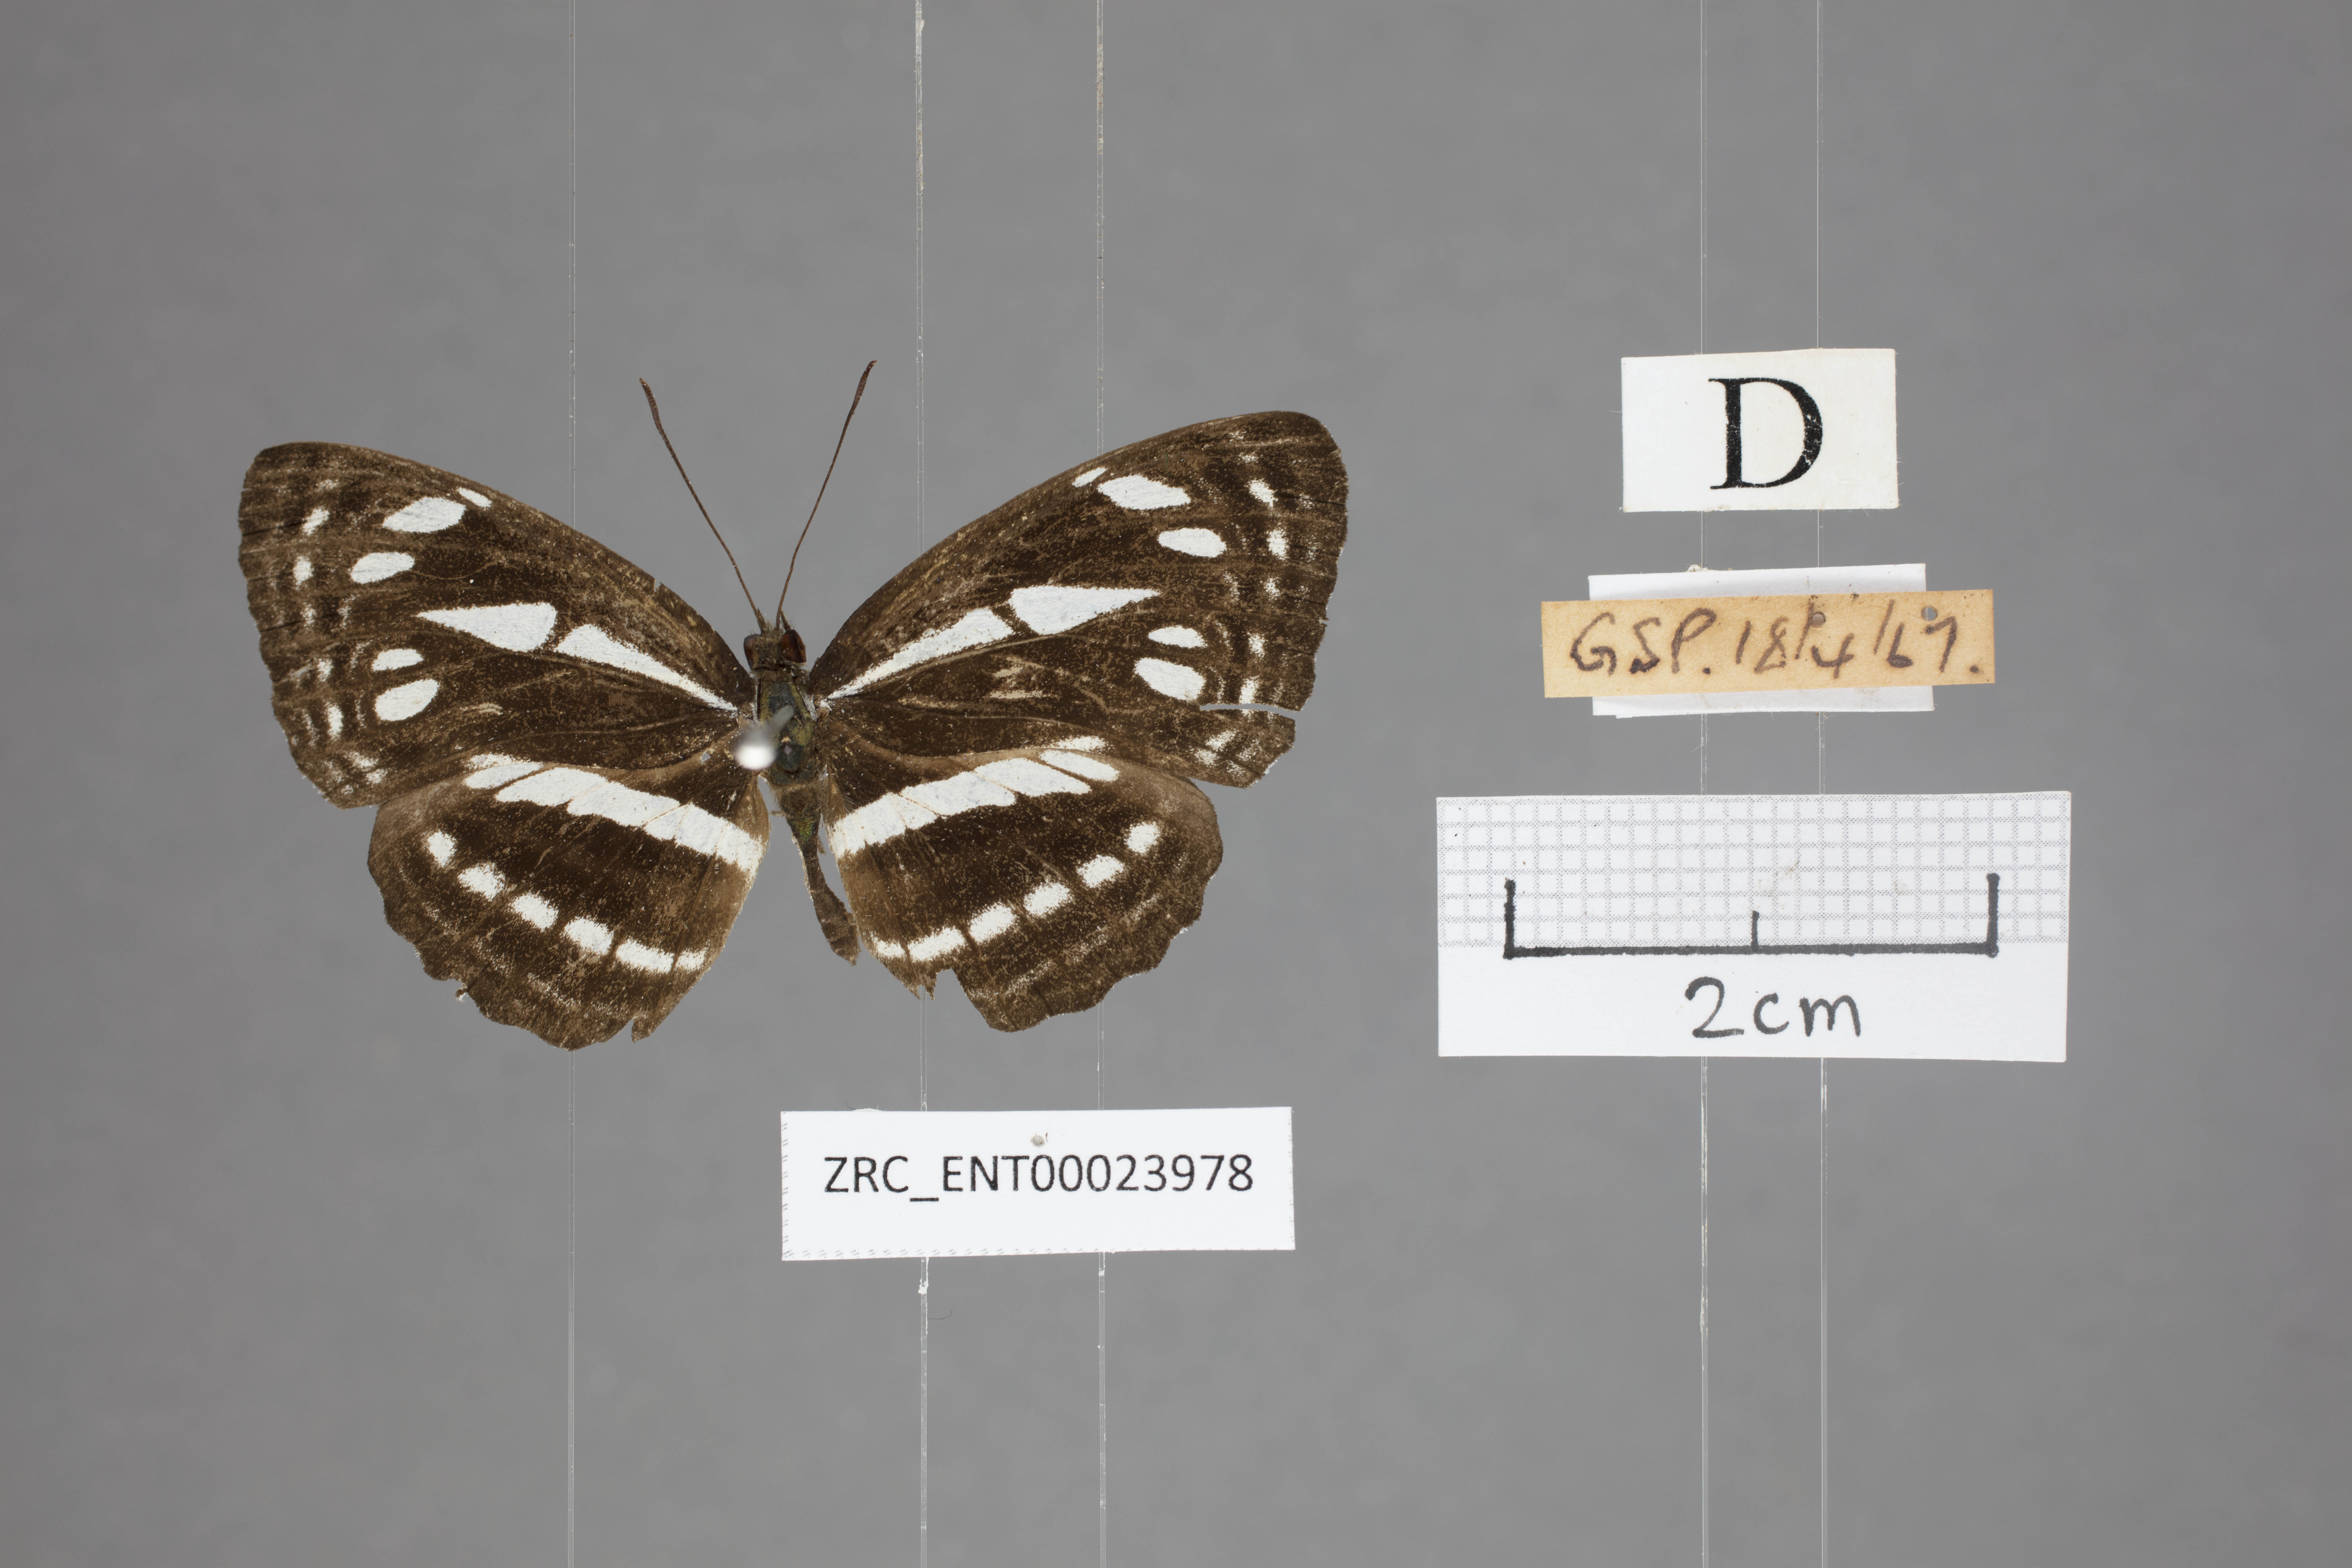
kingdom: Animalia
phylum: Arthropoda
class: Insecta
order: Lepidoptera
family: Nymphalidae
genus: Neptis
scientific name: Neptis duryodana
